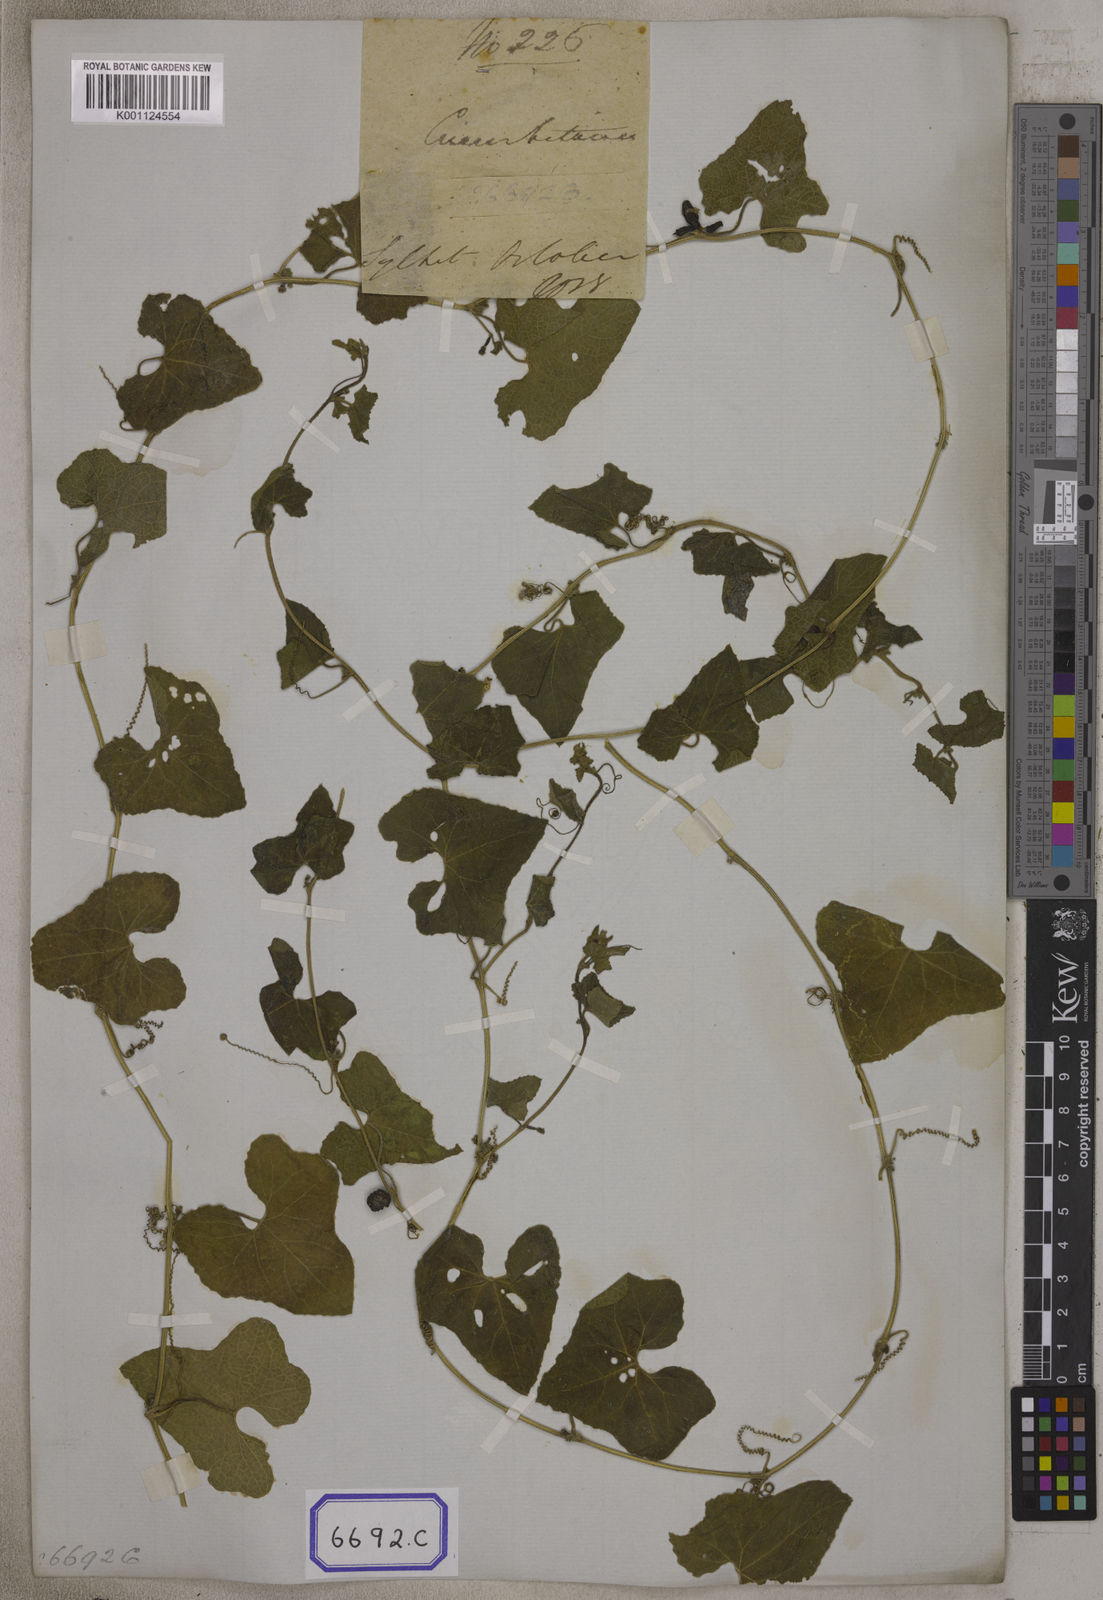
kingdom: Plantae
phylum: Tracheophyta
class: Magnoliopsida
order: Cucurbitales
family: Cucurbitaceae
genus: Trichosanthes
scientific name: Trichosanthes
